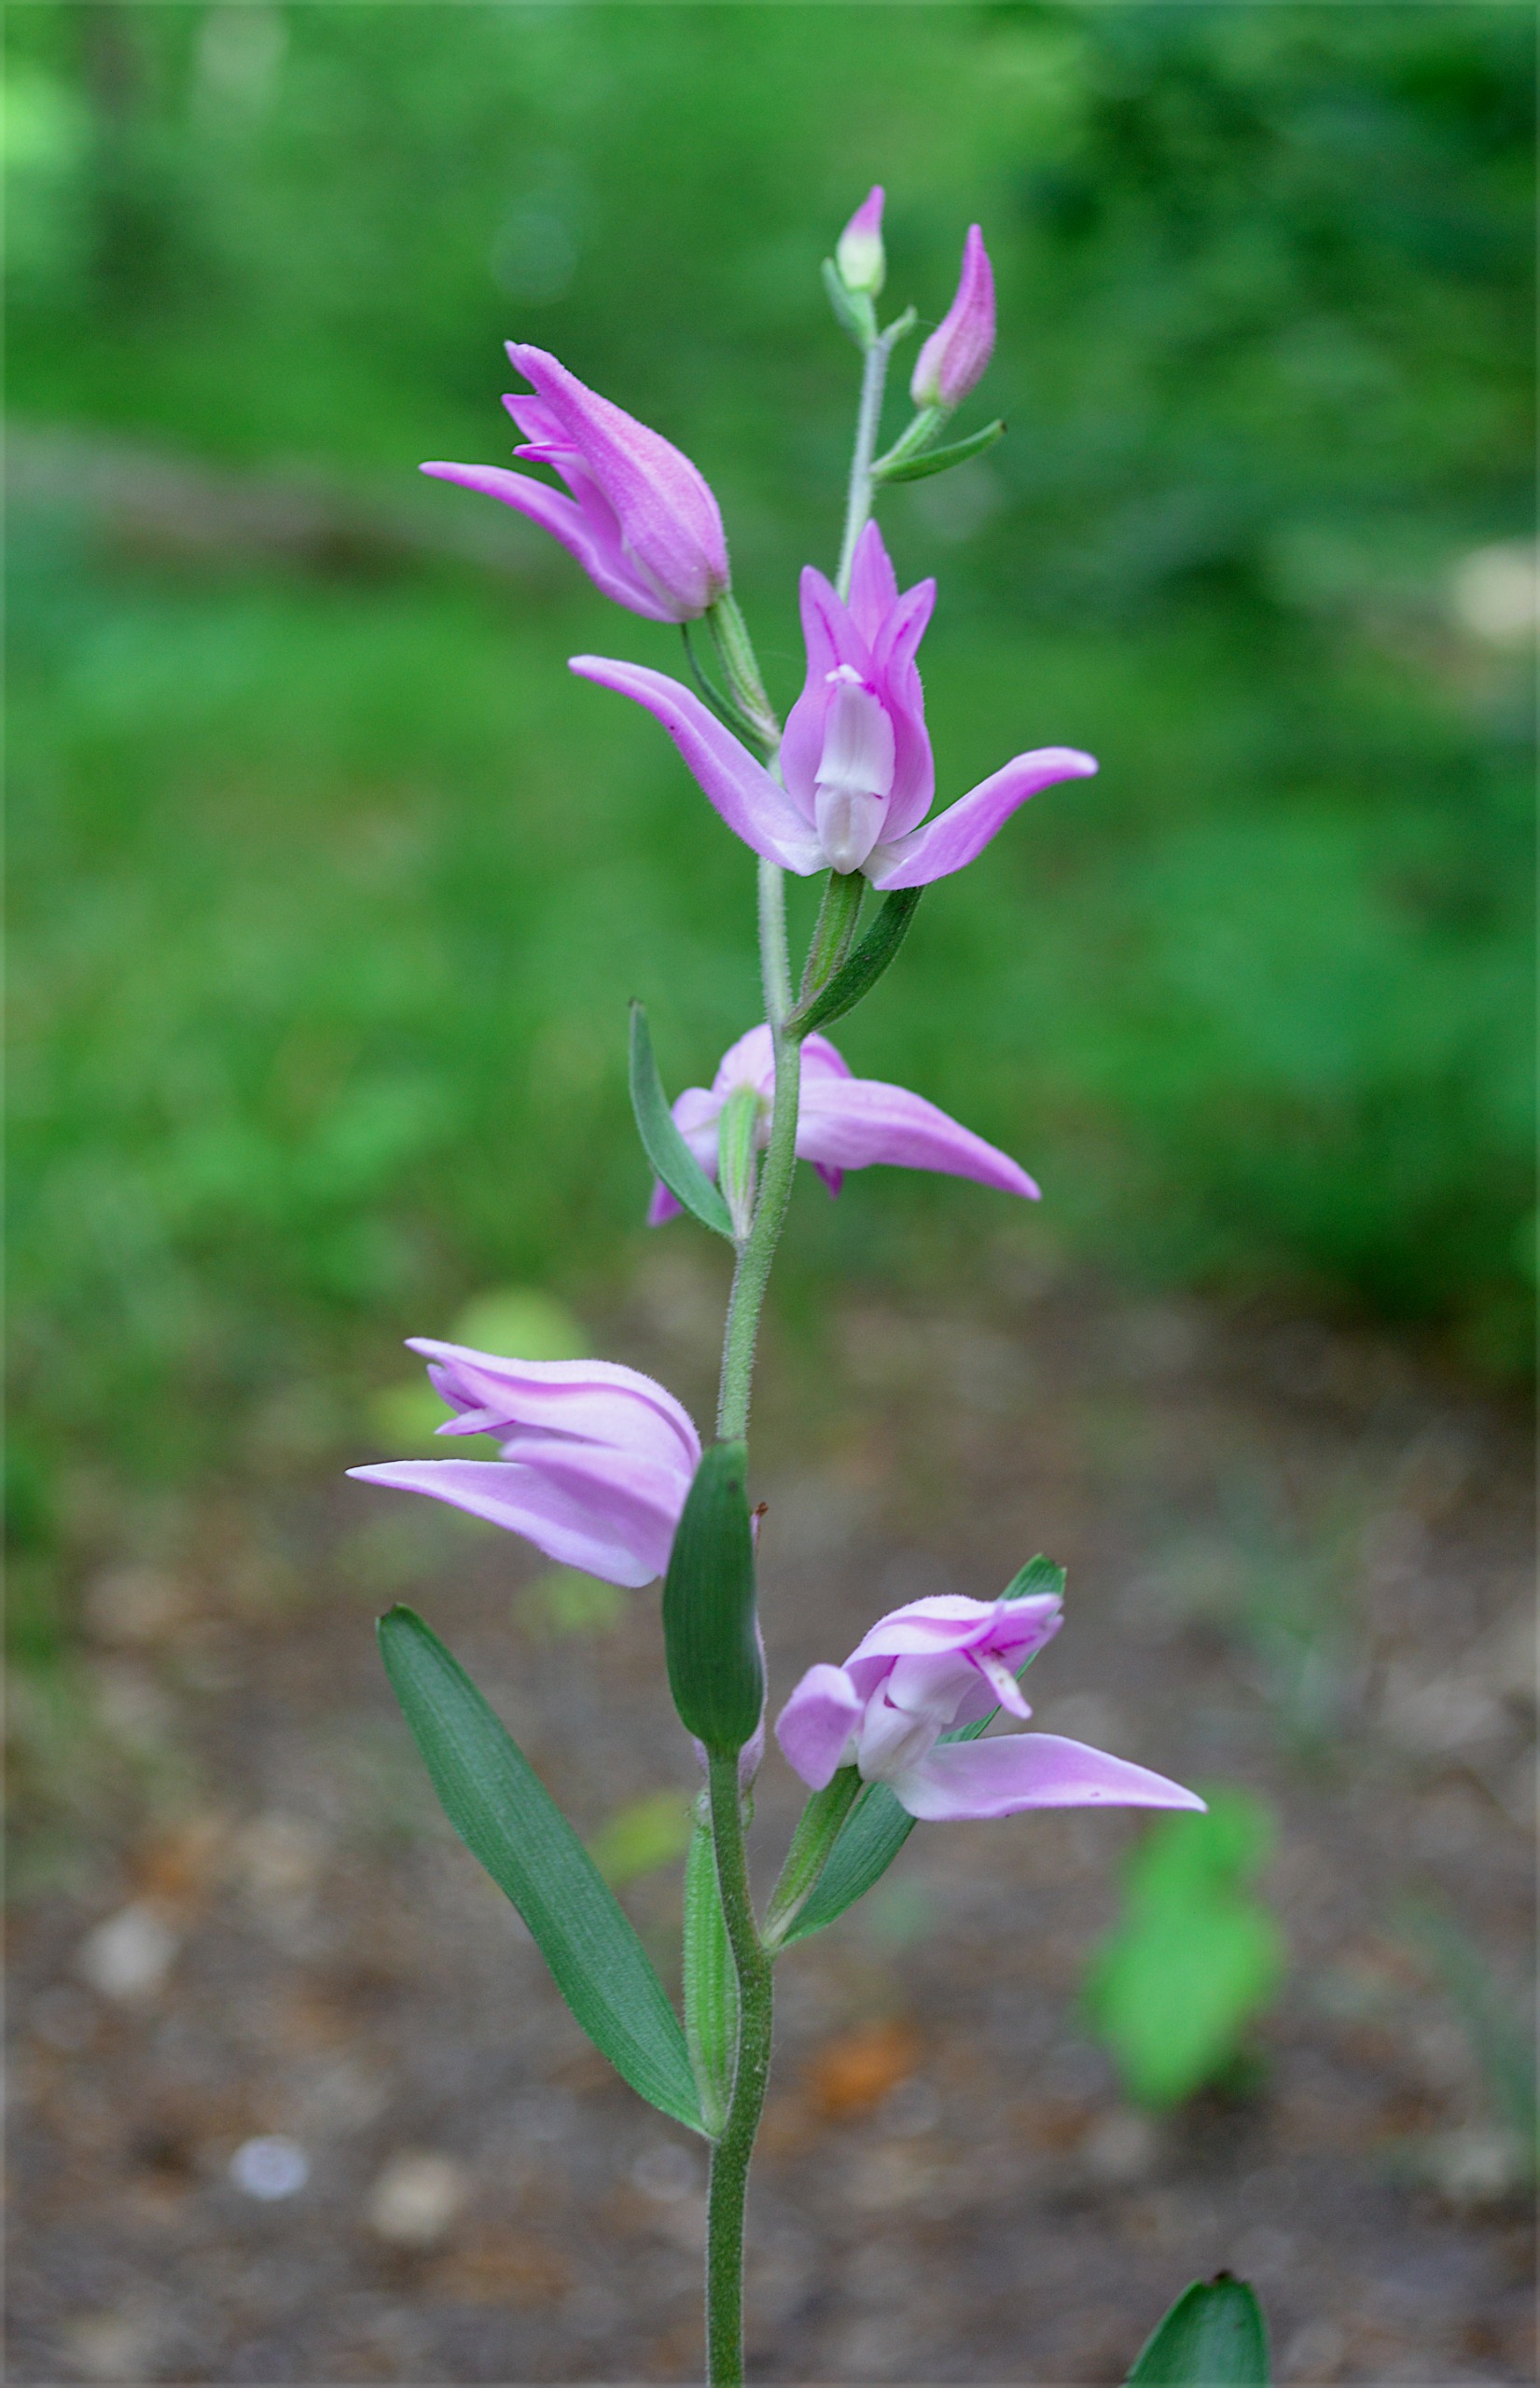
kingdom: Plantae
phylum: Tracheophyta
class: Liliopsida
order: Asparagales
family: Orchidaceae
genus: Cephalanthera
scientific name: Cephalanthera rubra
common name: Rød skovlilje
